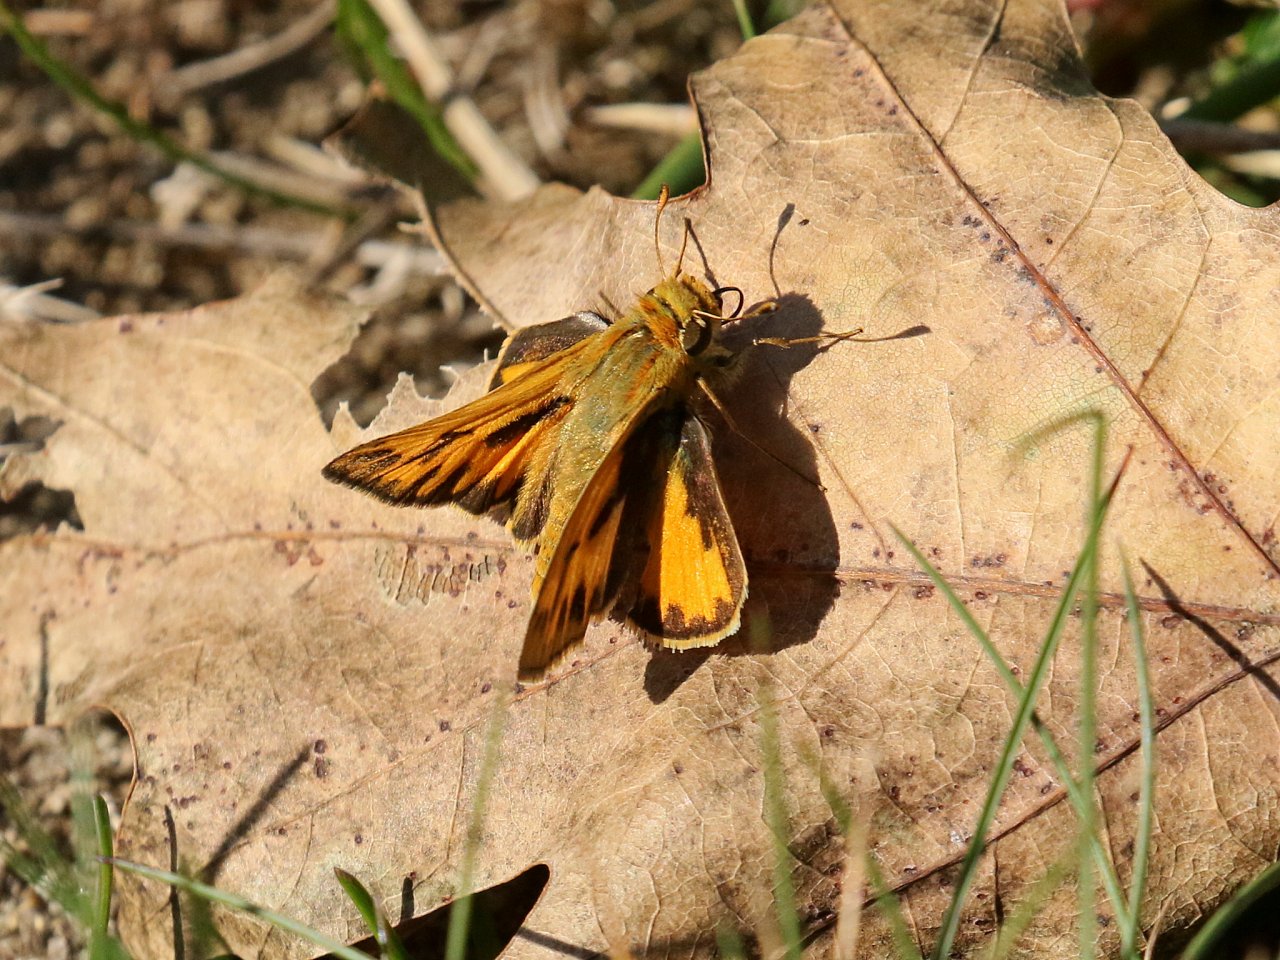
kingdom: Animalia
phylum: Arthropoda
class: Insecta
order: Lepidoptera
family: Hesperiidae
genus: Hylephila
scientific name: Hylephila phyleus
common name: Fiery Skipper
